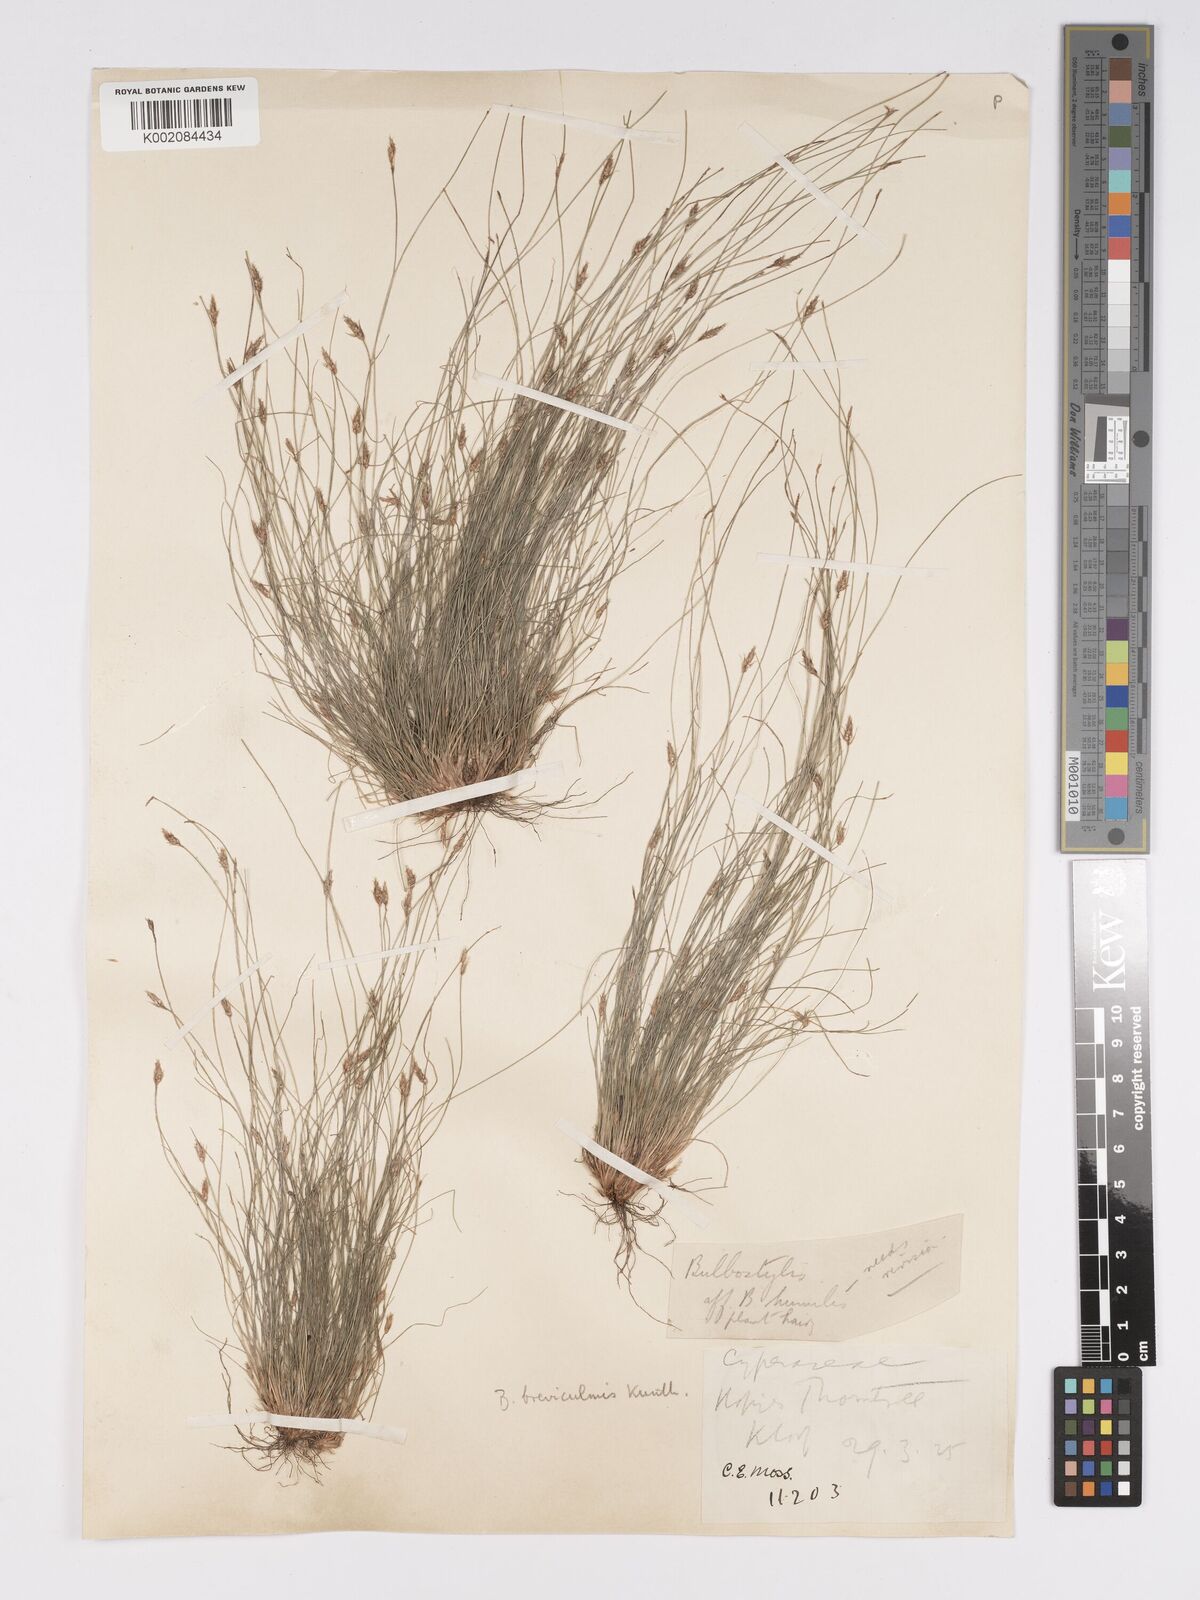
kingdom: Plantae
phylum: Tracheophyta
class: Liliopsida
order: Poales
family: Cyperaceae
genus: Bulbostylis
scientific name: Bulbostylis humilis
